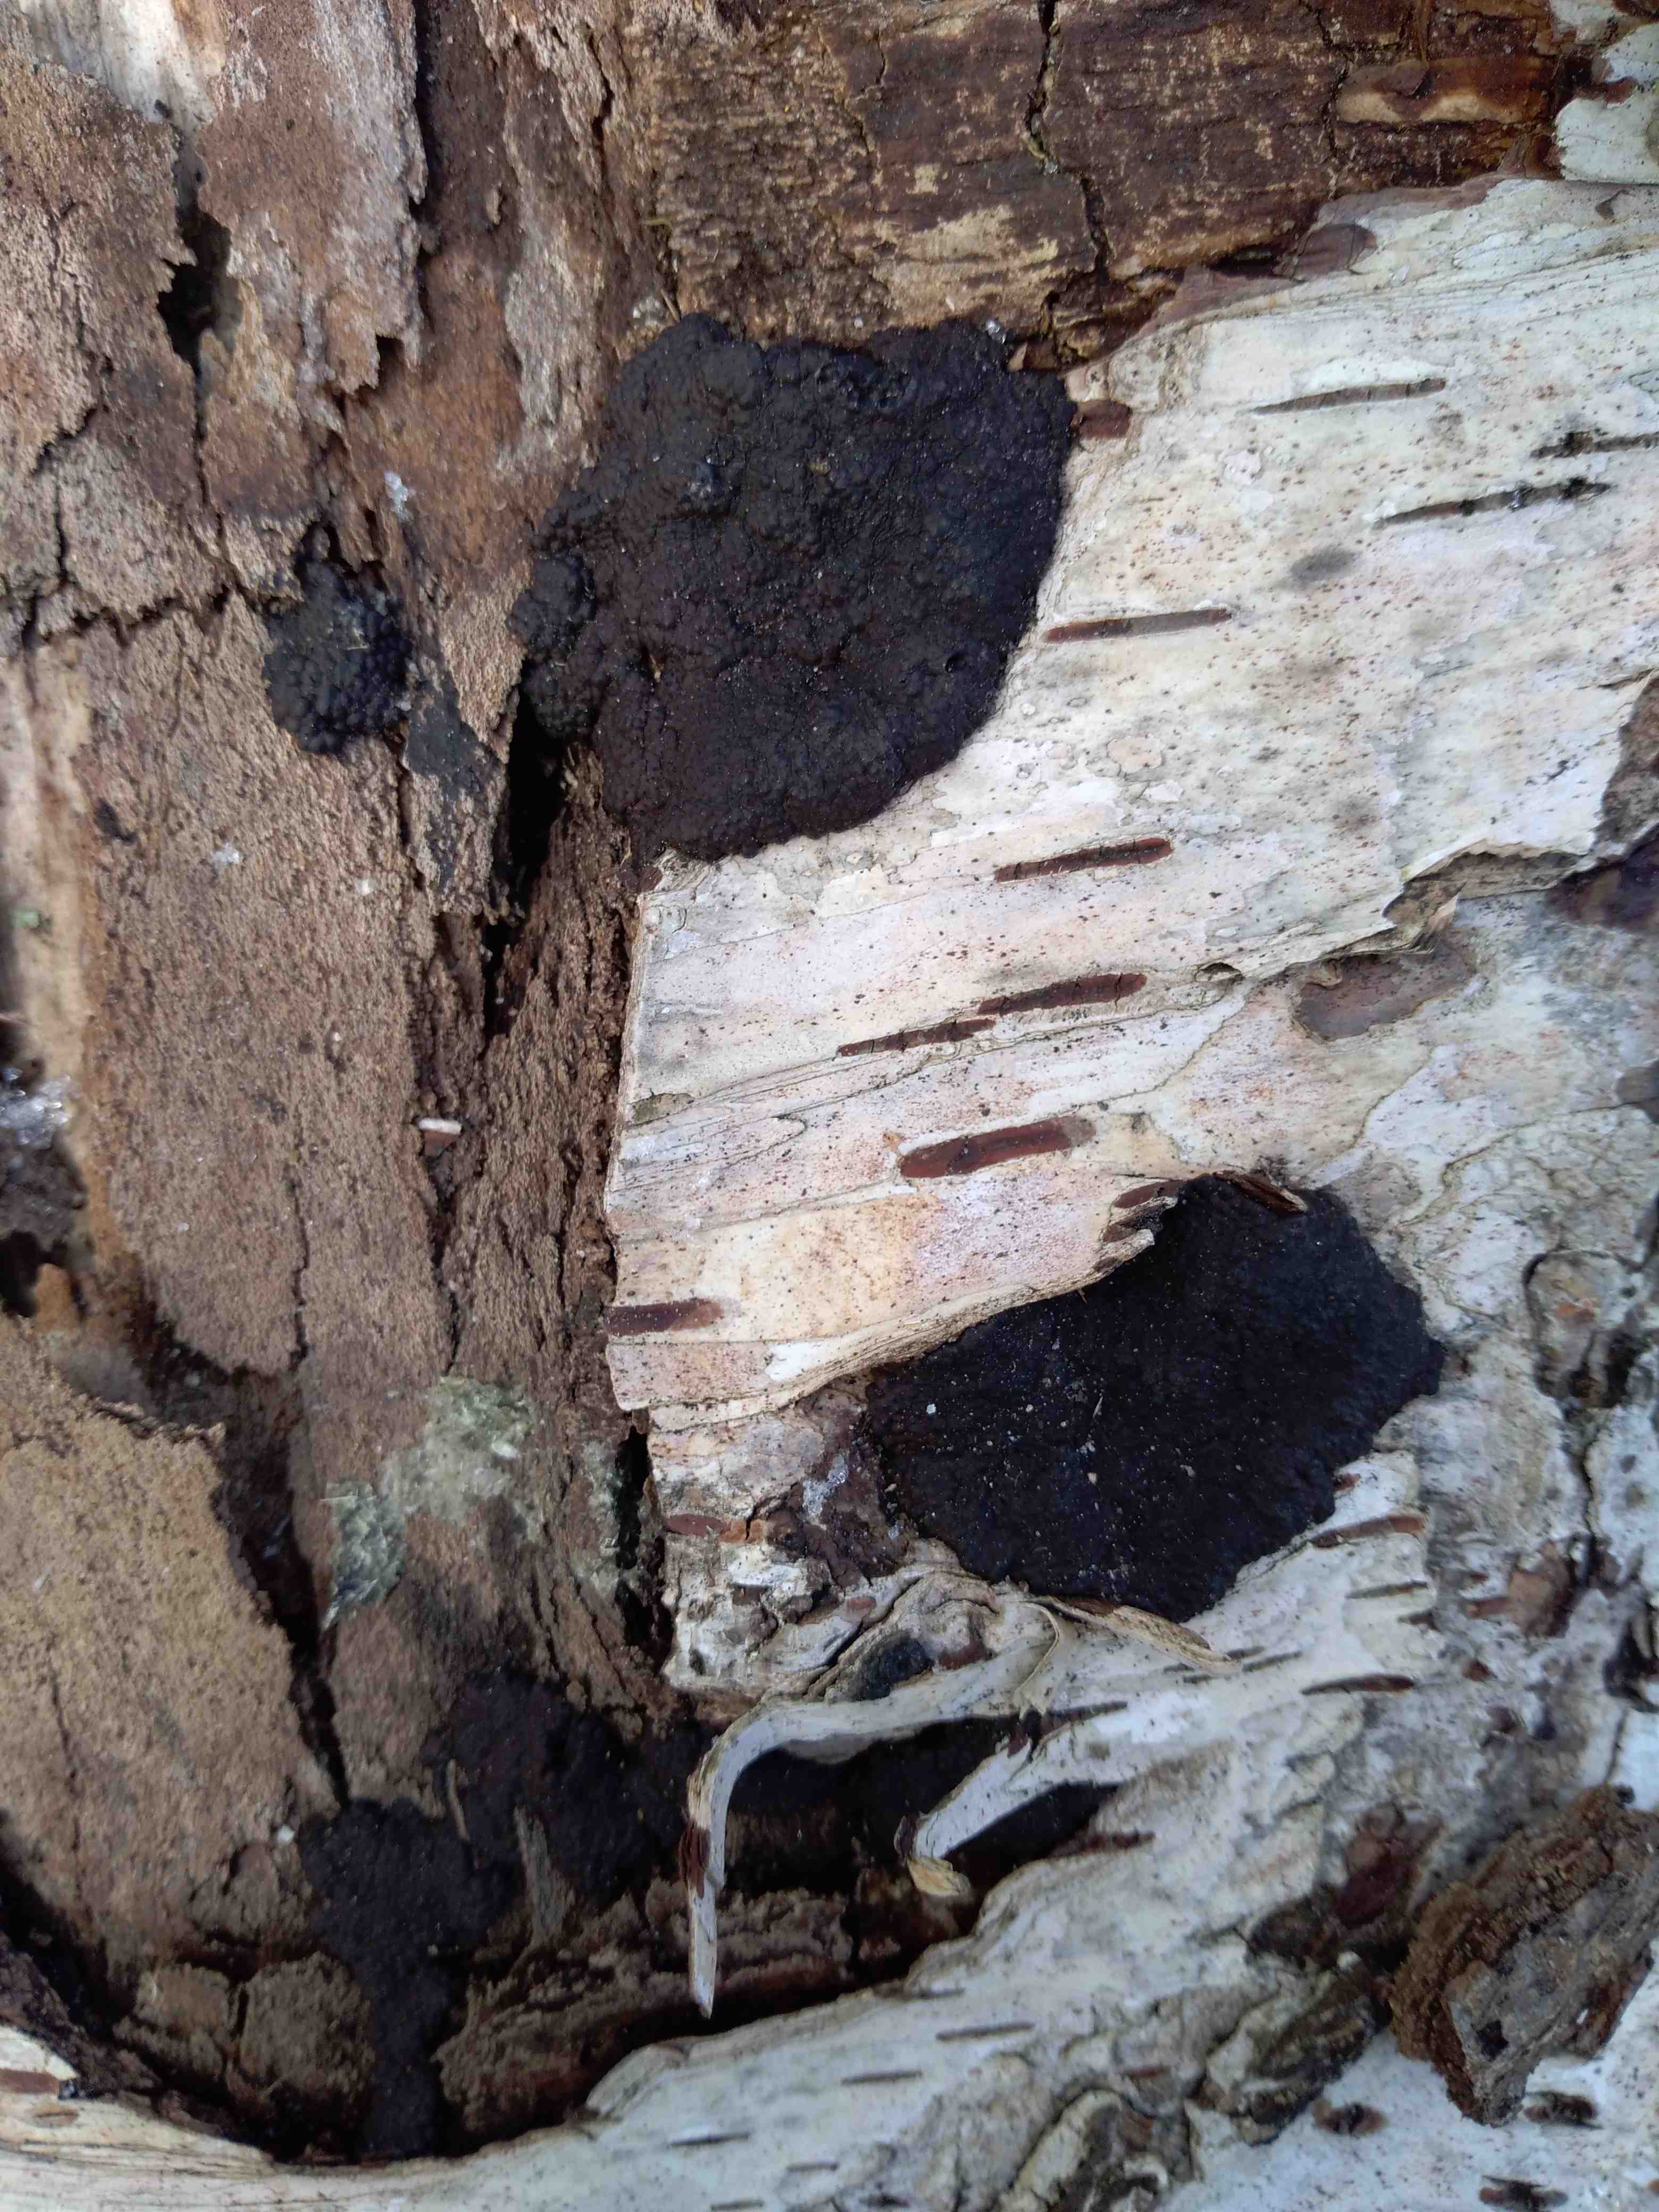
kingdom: Fungi
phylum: Ascomycota
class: Sordariomycetes
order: Xylariales
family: Hypoxylaceae
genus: Jackrogersella
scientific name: Jackrogersella multiformis
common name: foranderlig kulbær
